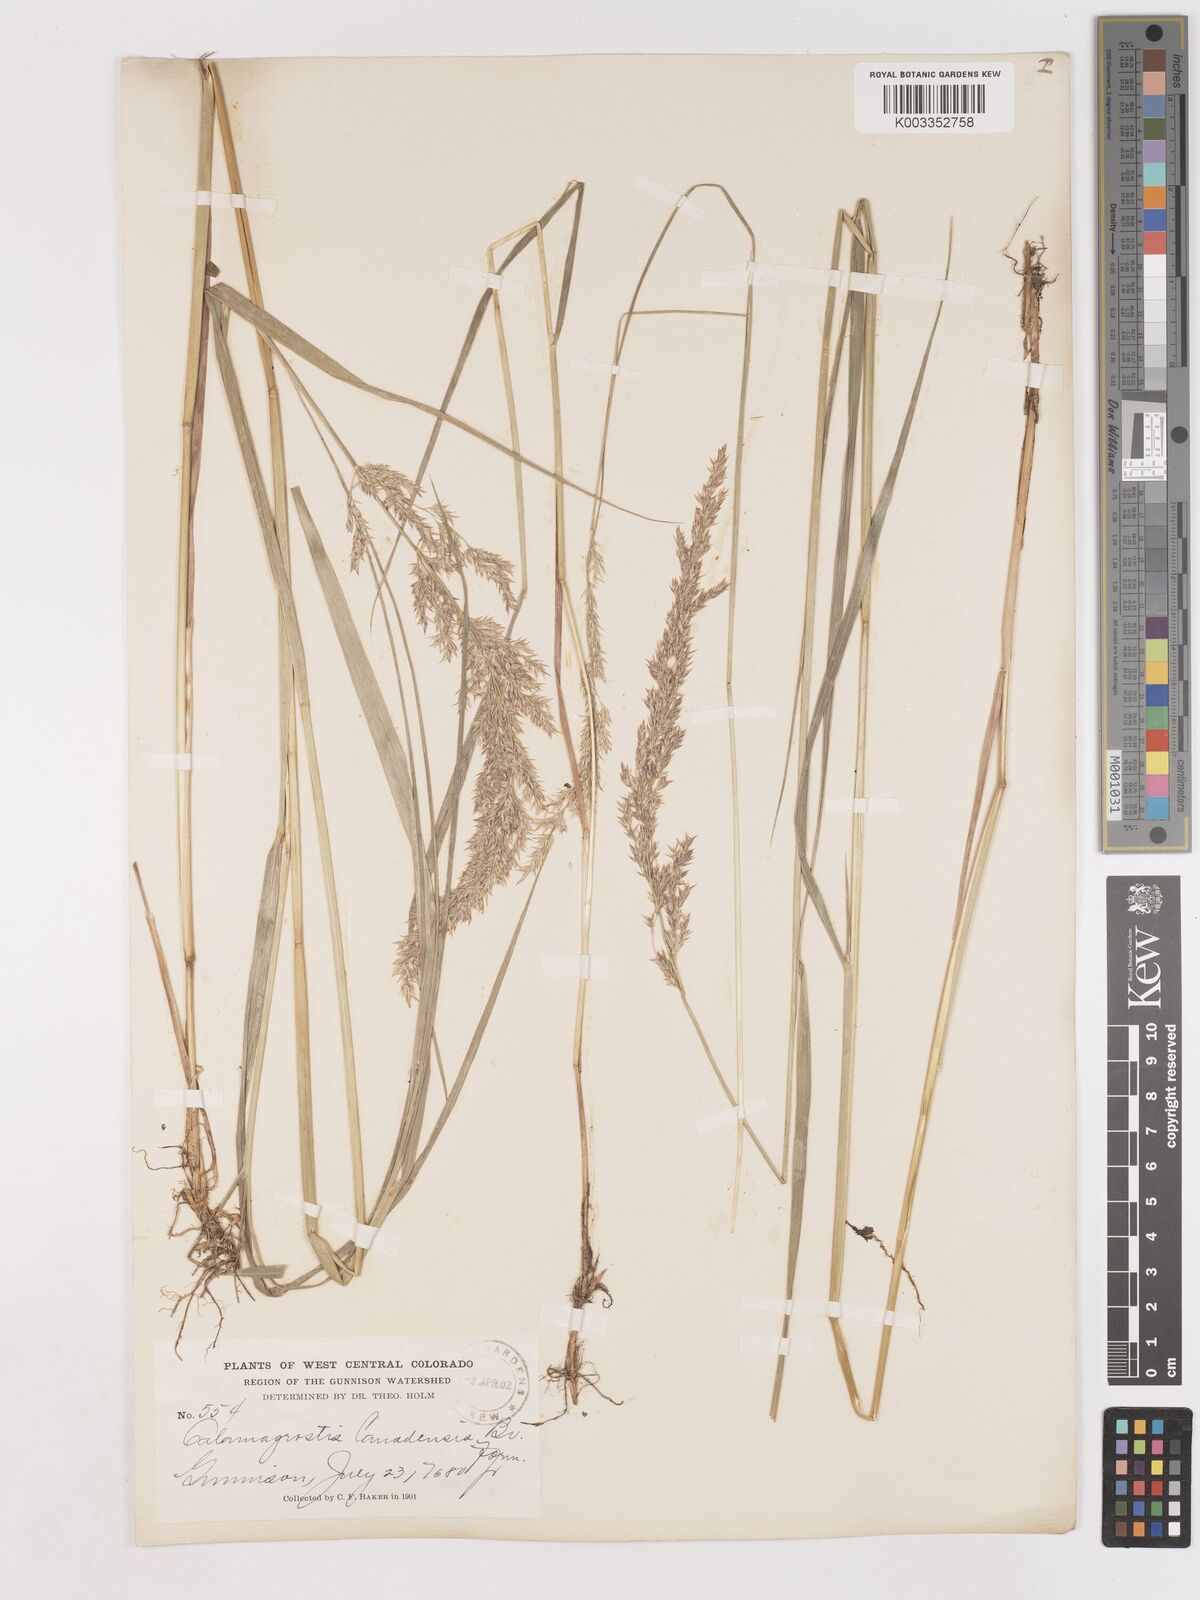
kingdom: Plantae
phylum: Tracheophyta
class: Liliopsida
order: Poales
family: Poaceae
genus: Calamagrostis
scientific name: Calamagrostis canadensis
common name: Canada bluejoint
